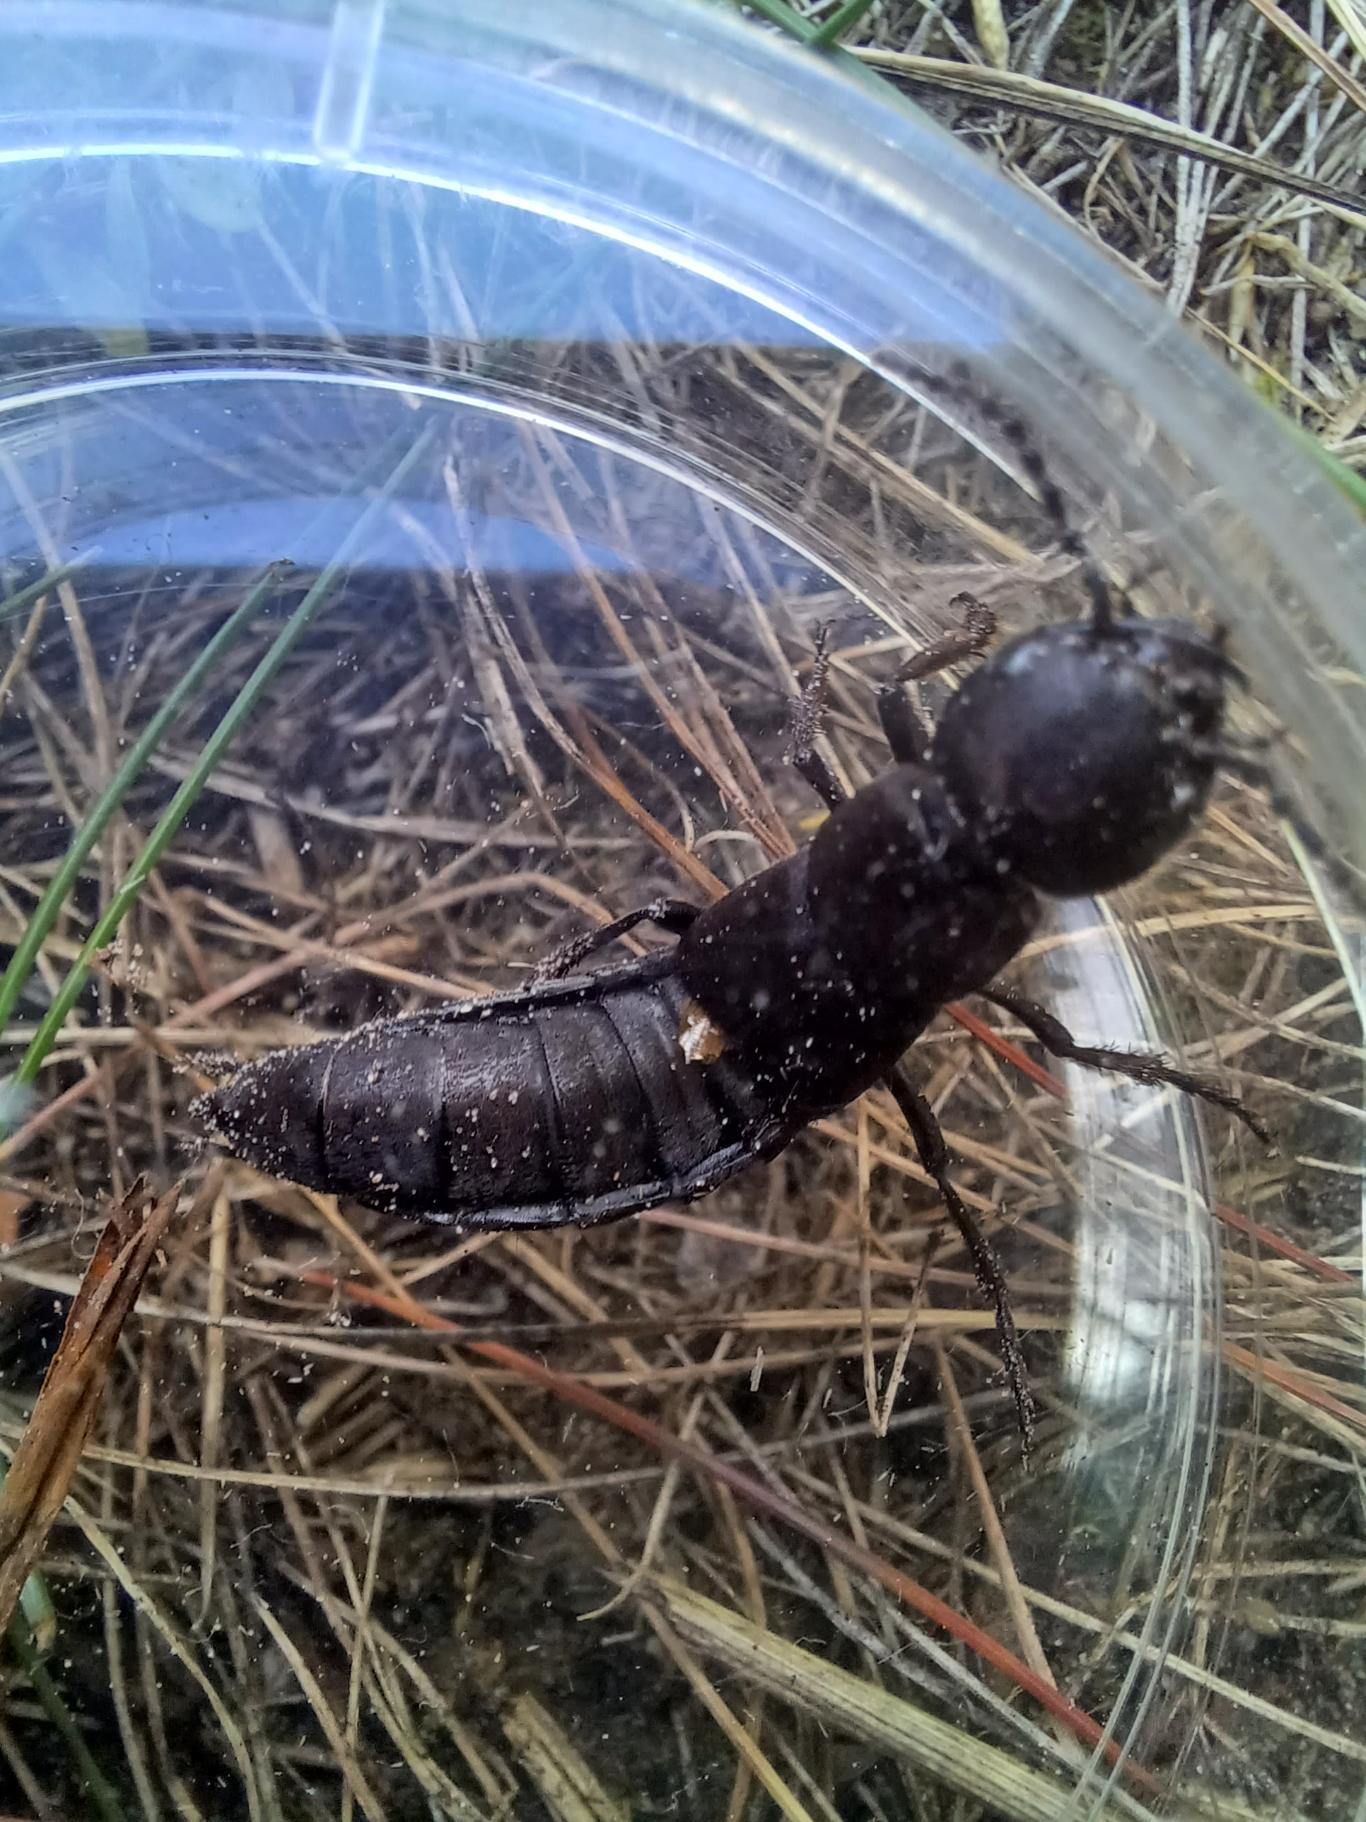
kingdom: Animalia
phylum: Arthropoda
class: Insecta
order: Coleoptera
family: Staphylinidae
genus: Ocypus
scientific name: Ocypus olens
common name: Stor rovbille
